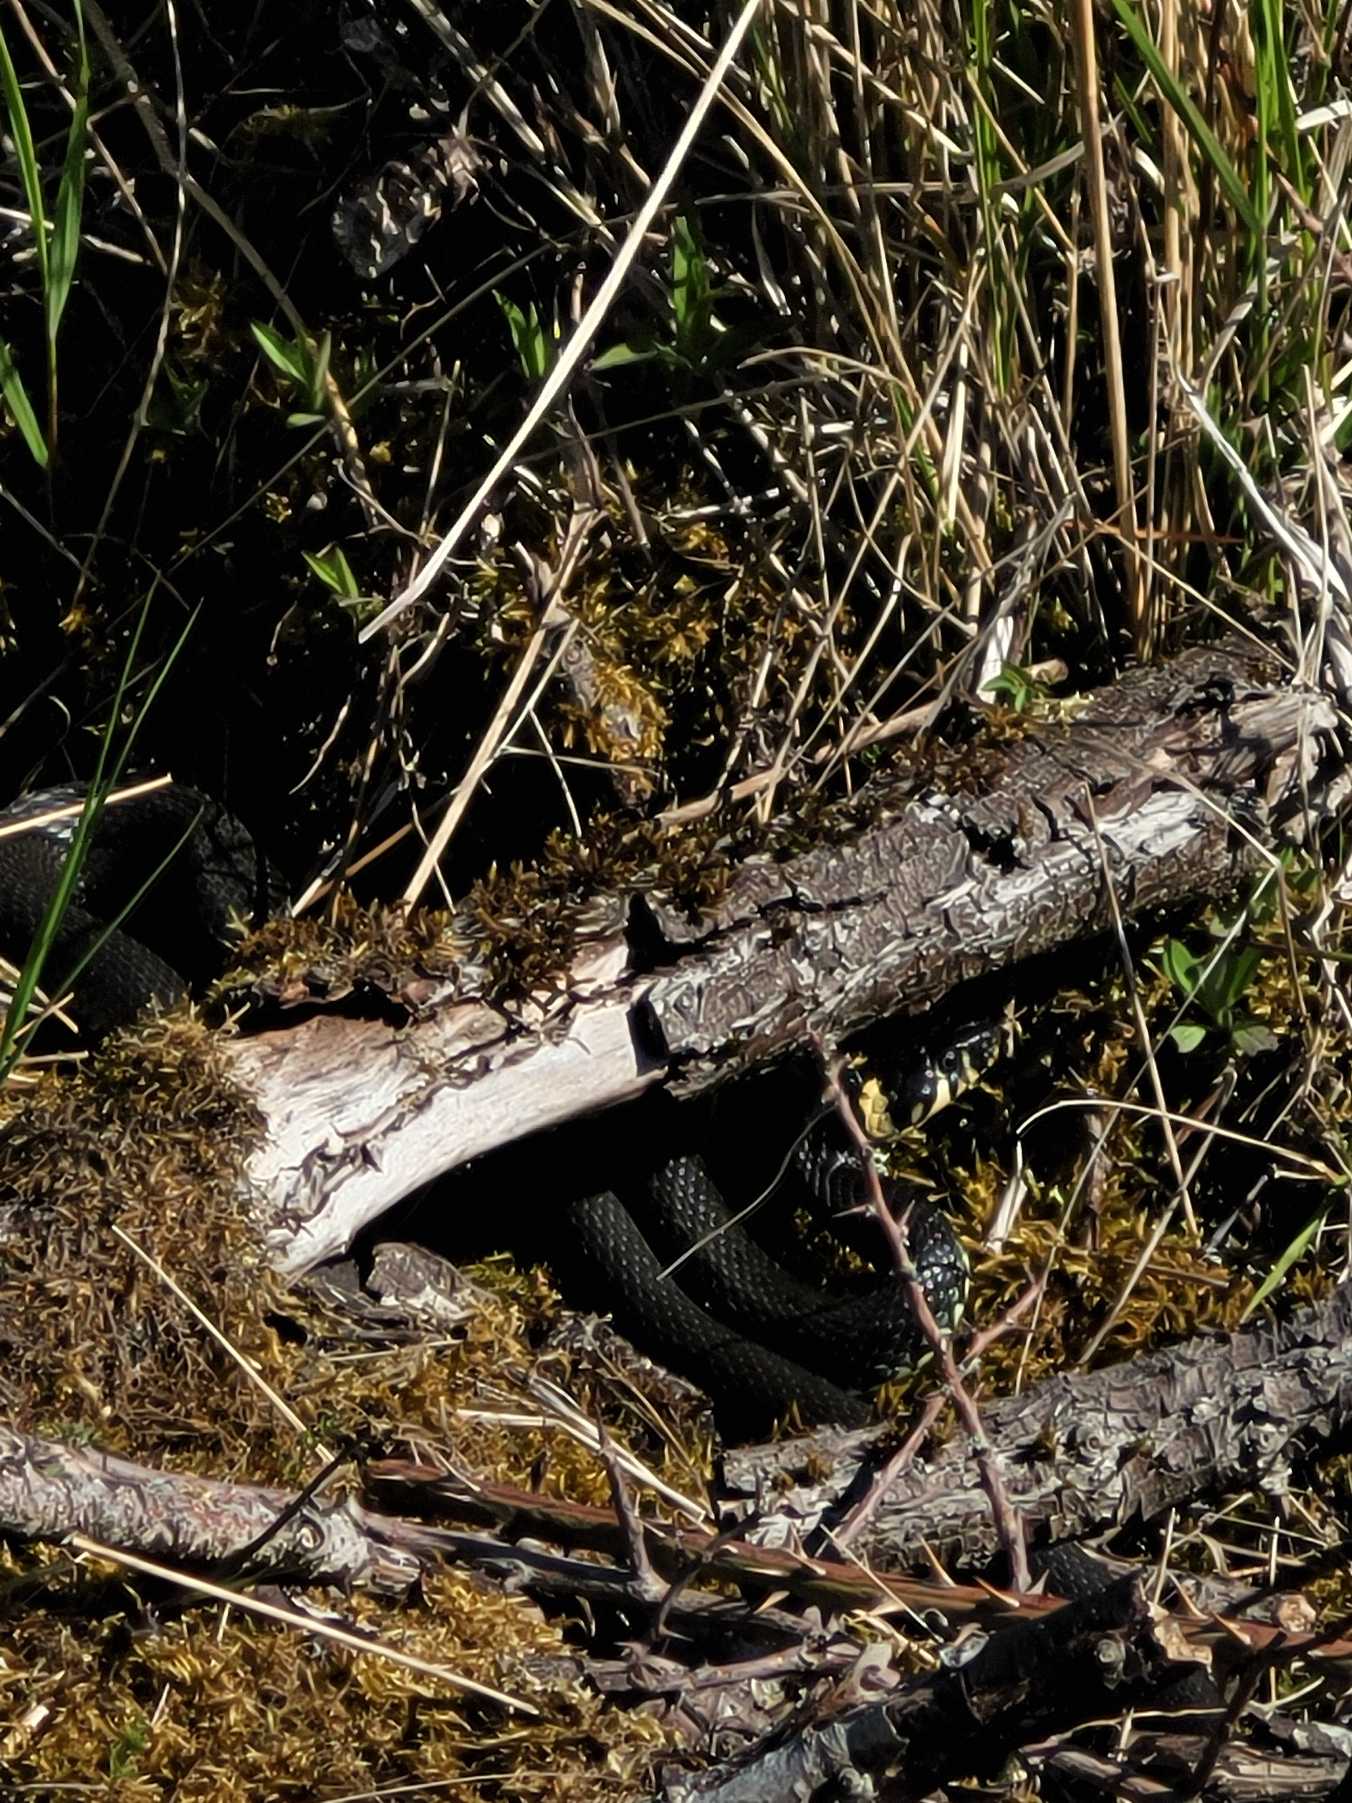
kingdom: Animalia
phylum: Chordata
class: Squamata
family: Colubridae
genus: Natrix
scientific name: Natrix natrix
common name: Snog
